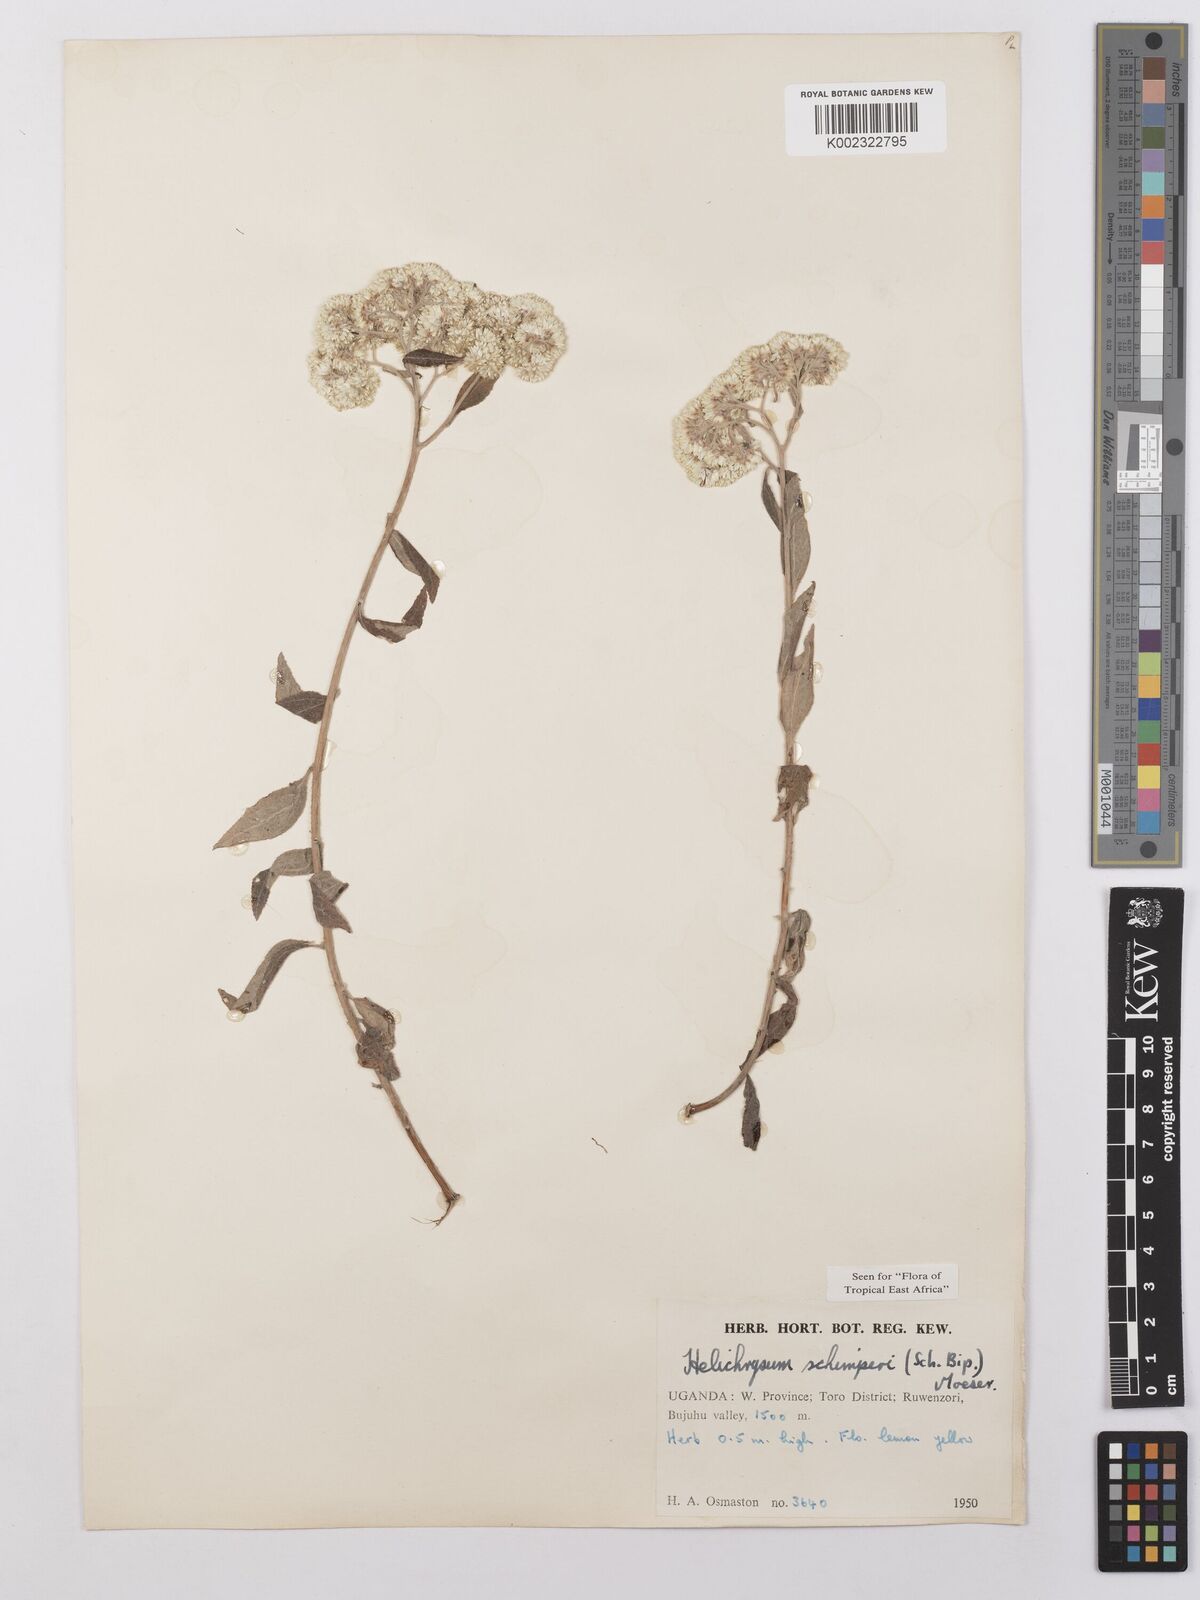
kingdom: Plantae
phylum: Tracheophyta
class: Magnoliopsida
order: Asterales
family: Asteraceae
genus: Helichrysum
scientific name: Helichrysum schimperi
